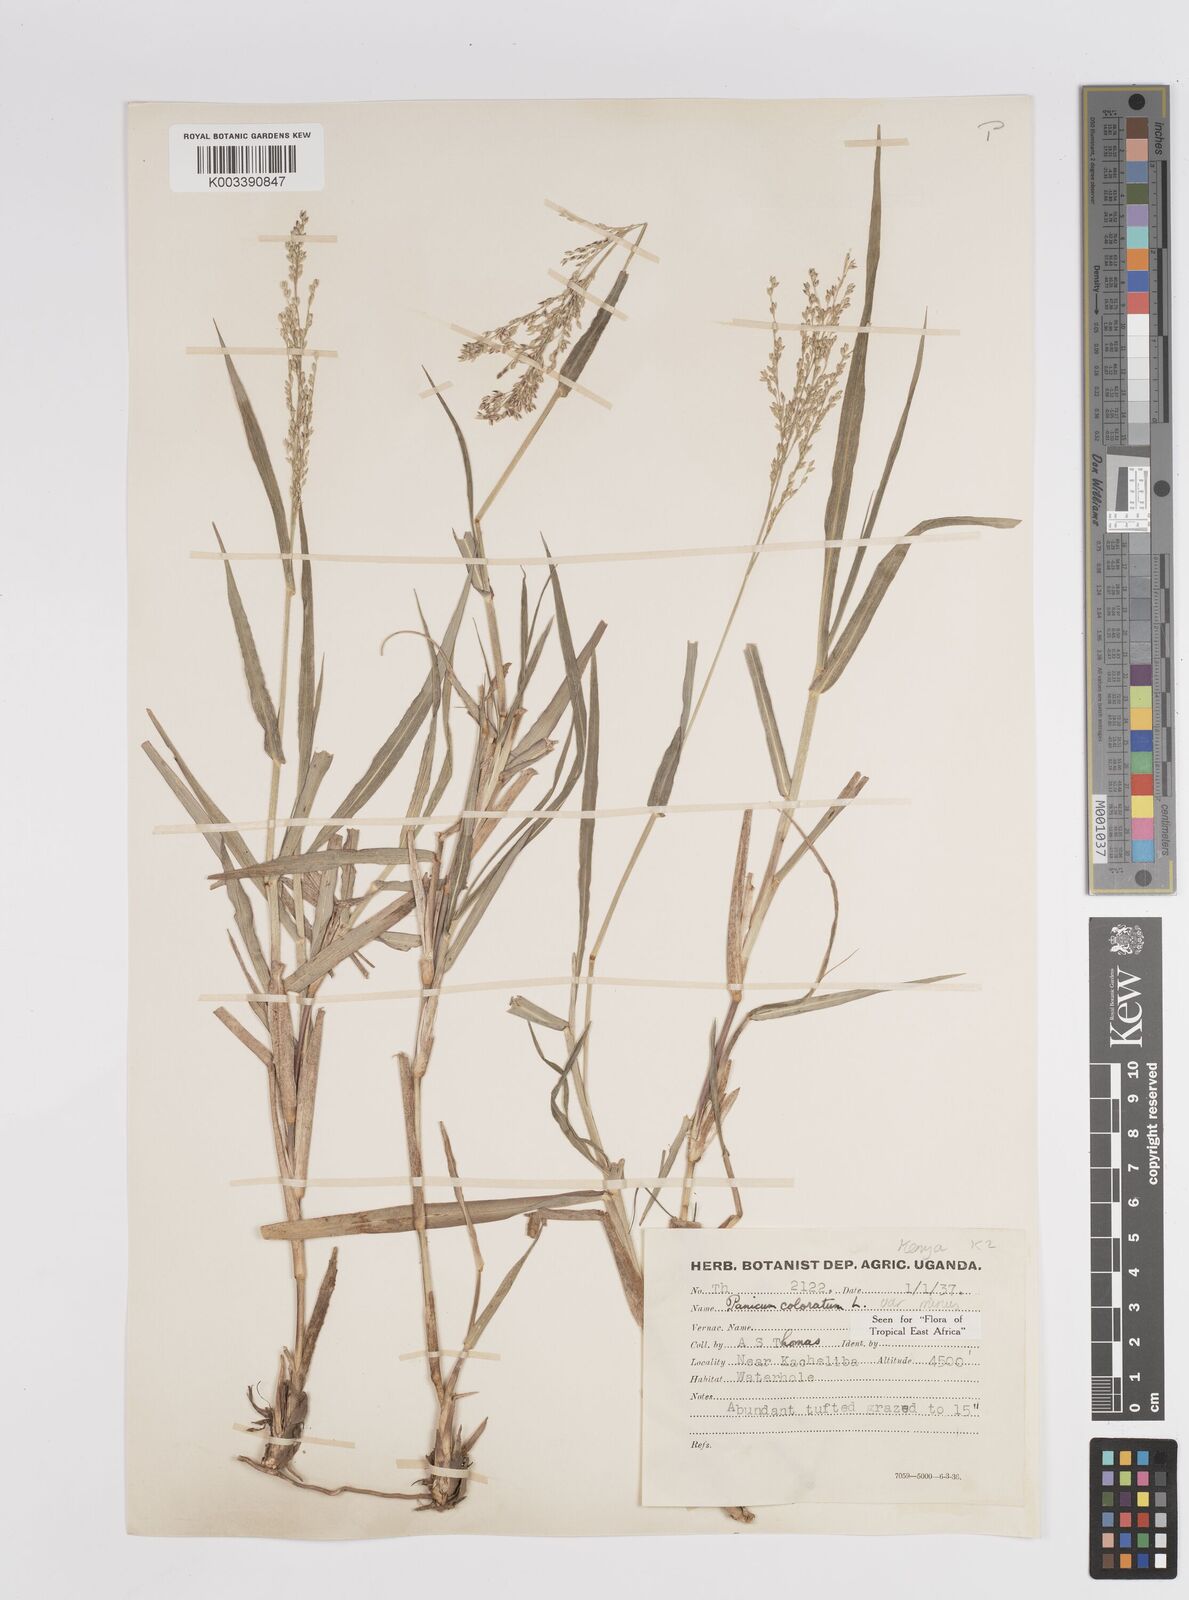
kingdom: Plantae
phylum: Tracheophyta
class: Liliopsida
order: Poales
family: Poaceae
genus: Panicum
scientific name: Panicum coloratum
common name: Kleingrass
